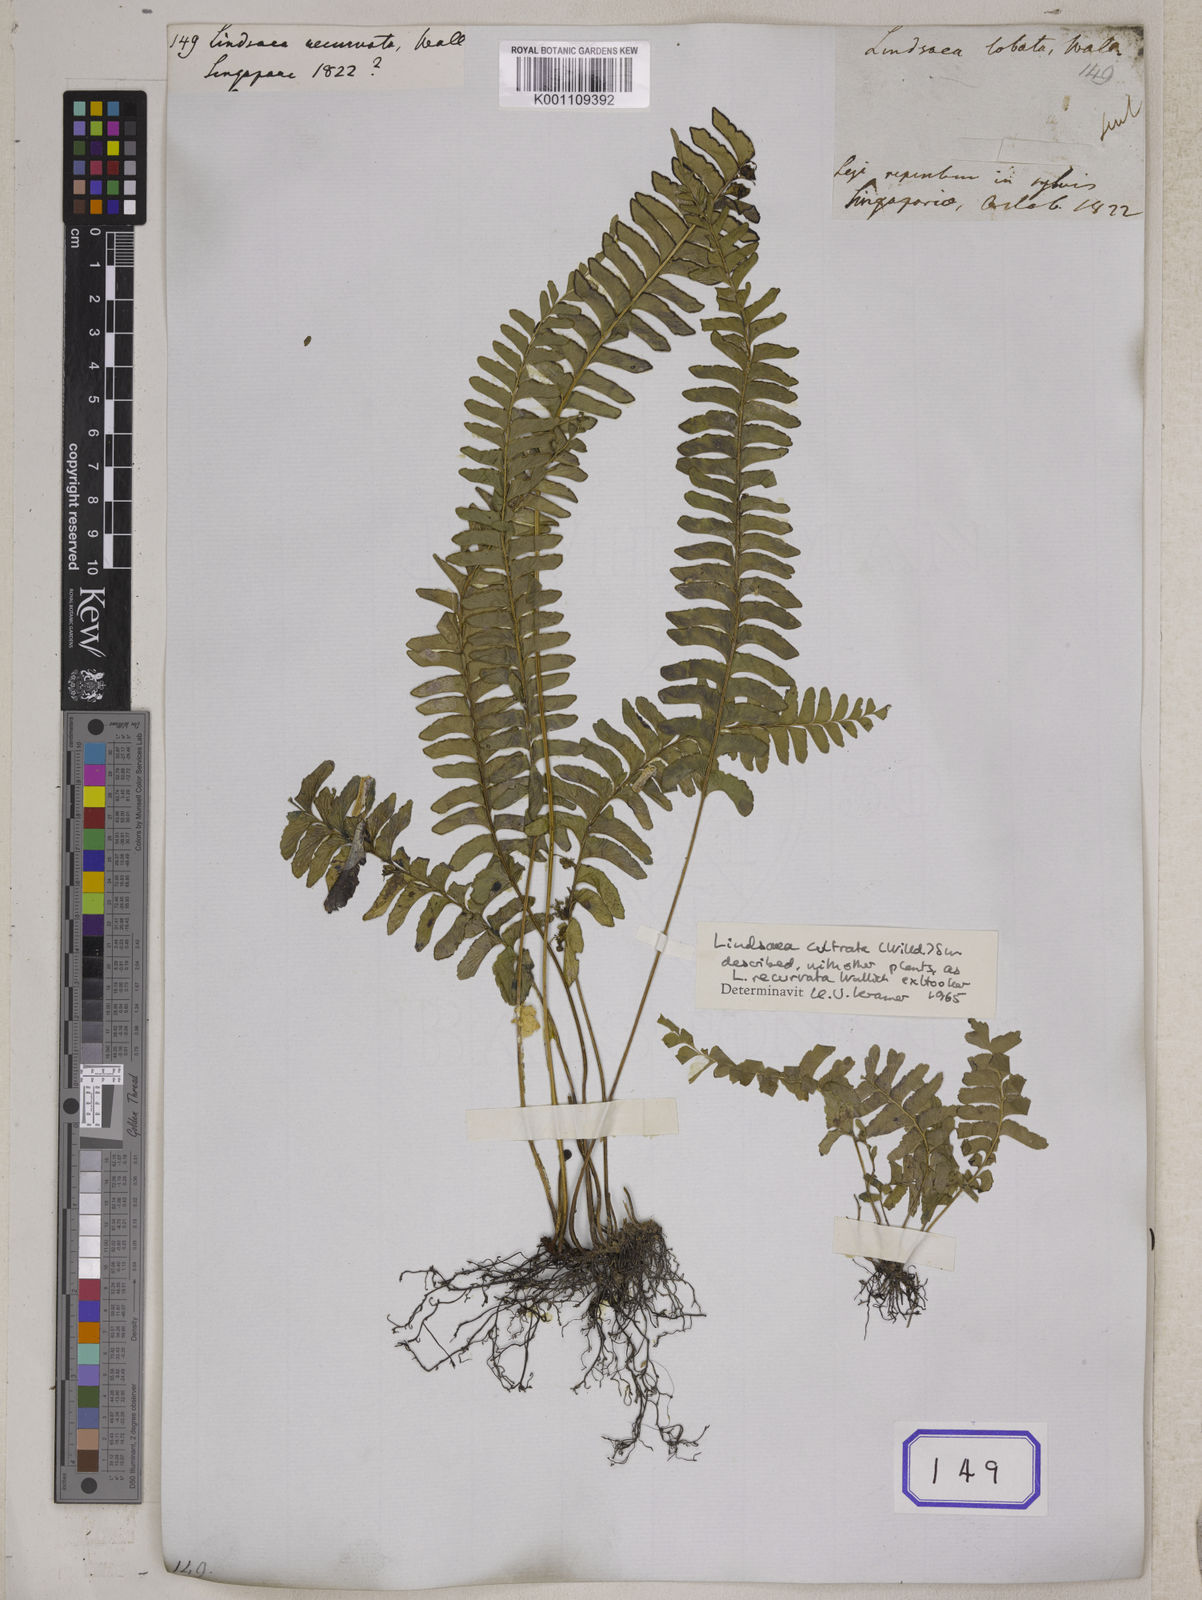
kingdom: Plantae
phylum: Tracheophyta
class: Polypodiopsida
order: Polypodiales
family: Lindsaeaceae
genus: Lindsaea
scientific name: Lindsaea cultrata
